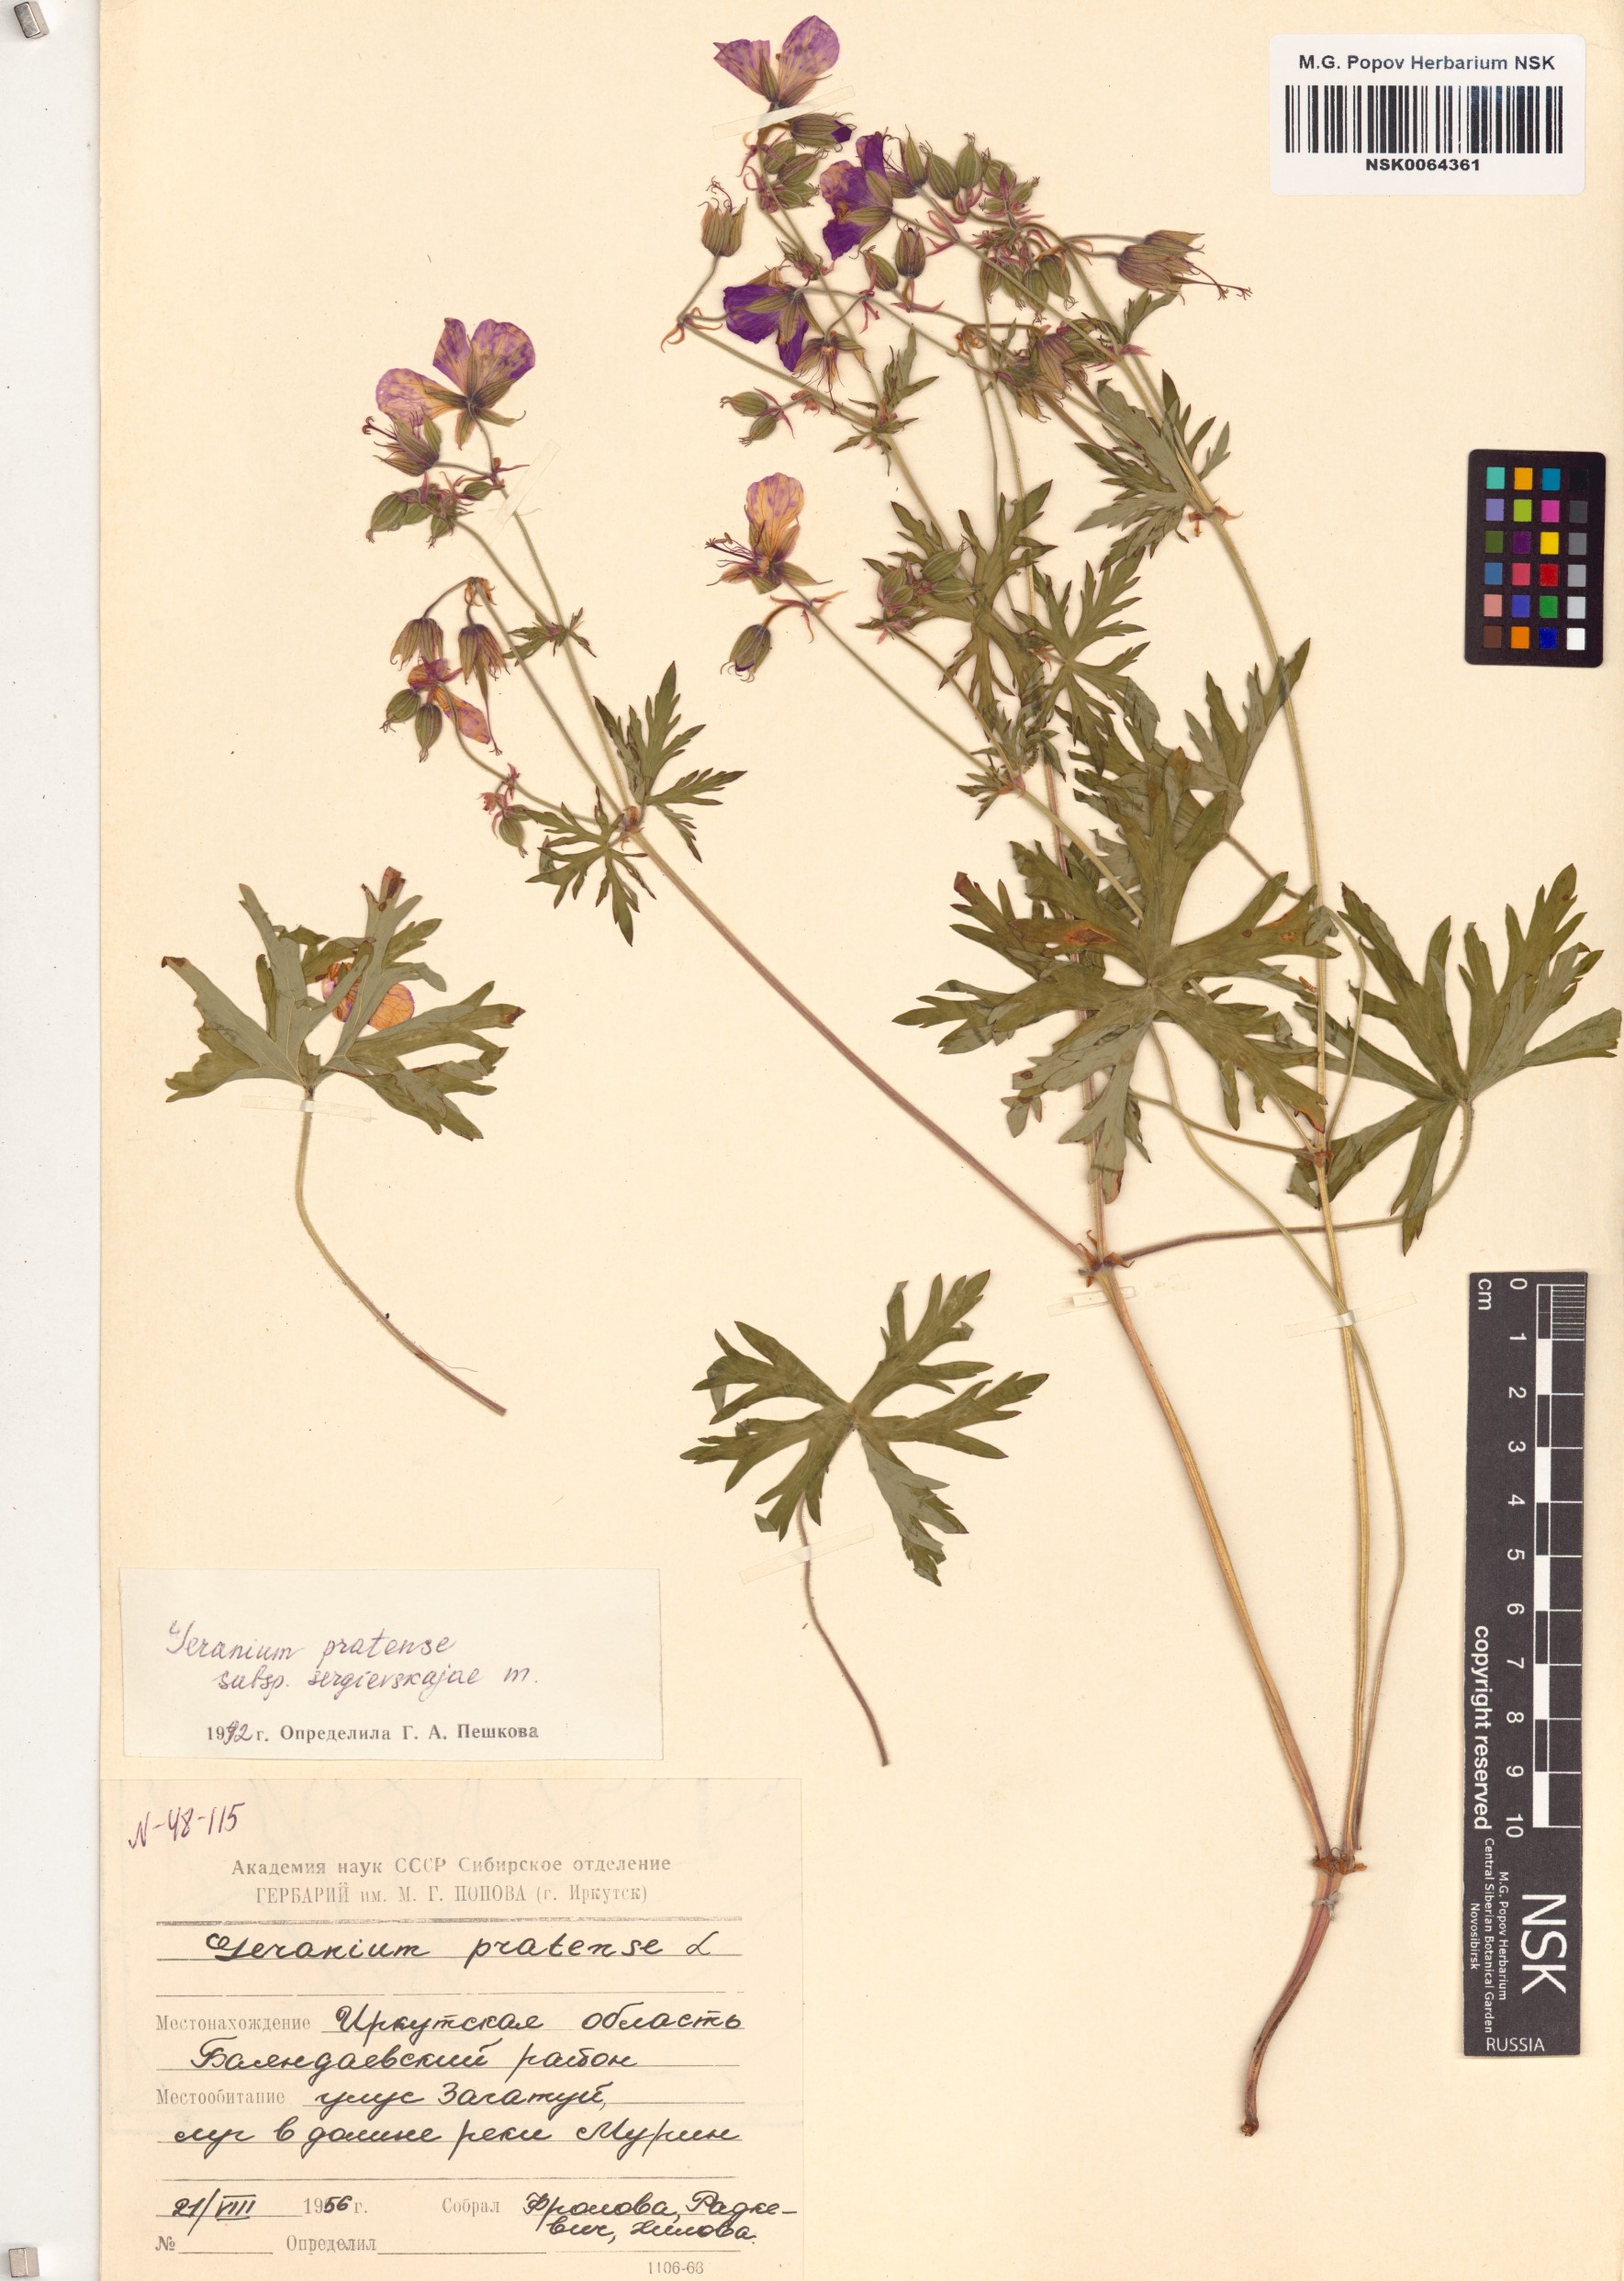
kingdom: Plantae
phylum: Tracheophyta
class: Magnoliopsida
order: Geraniales
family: Geraniaceae
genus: Geranium
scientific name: Geranium pratense
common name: Meadow crane's-bill
